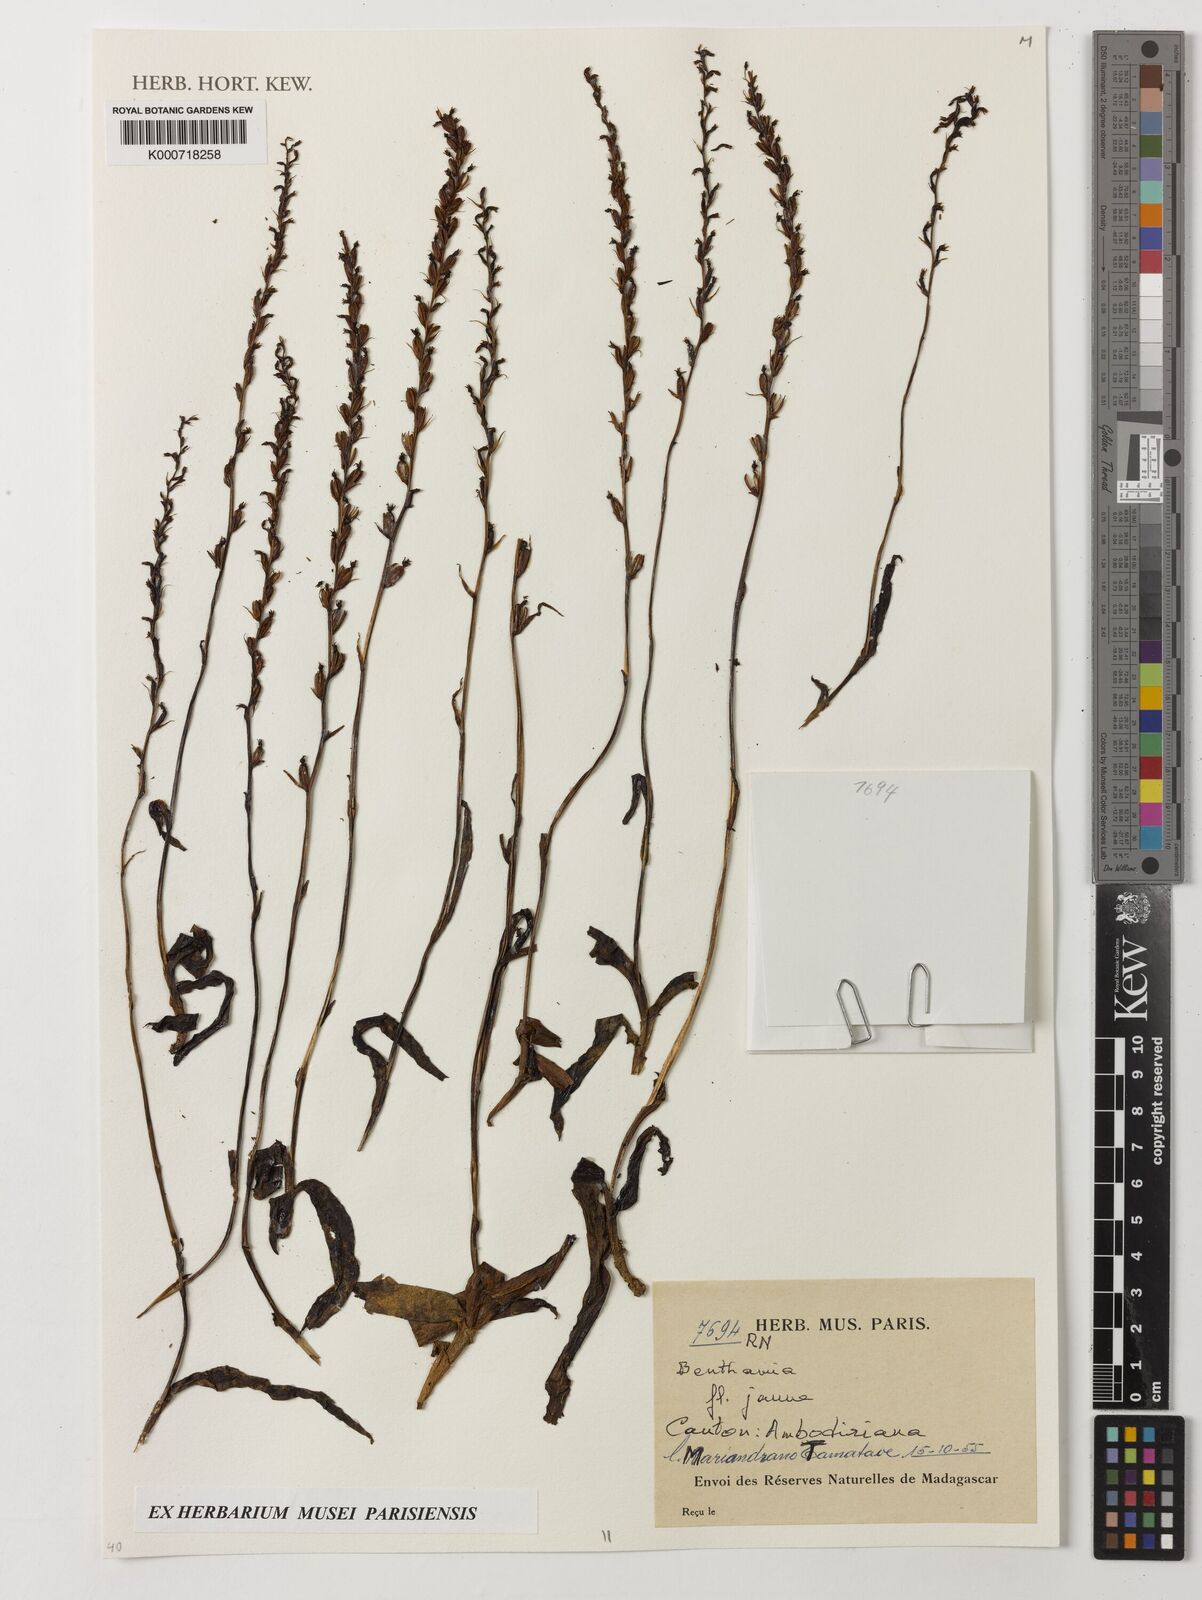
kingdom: Plantae
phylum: Tracheophyta
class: Liliopsida
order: Asparagales
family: Orchidaceae
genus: Benthamia
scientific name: Benthamia
